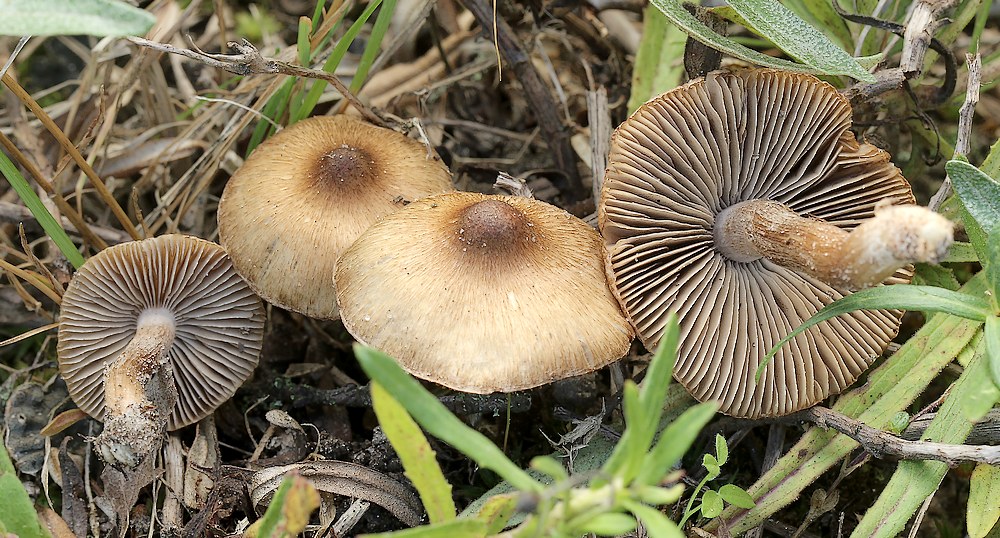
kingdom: Fungi
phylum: Basidiomycota
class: Agaricomycetes
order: Agaricales
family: Inocybaceae
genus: Inocybe
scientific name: Inocybe curvipes
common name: plæne-trævlhat
